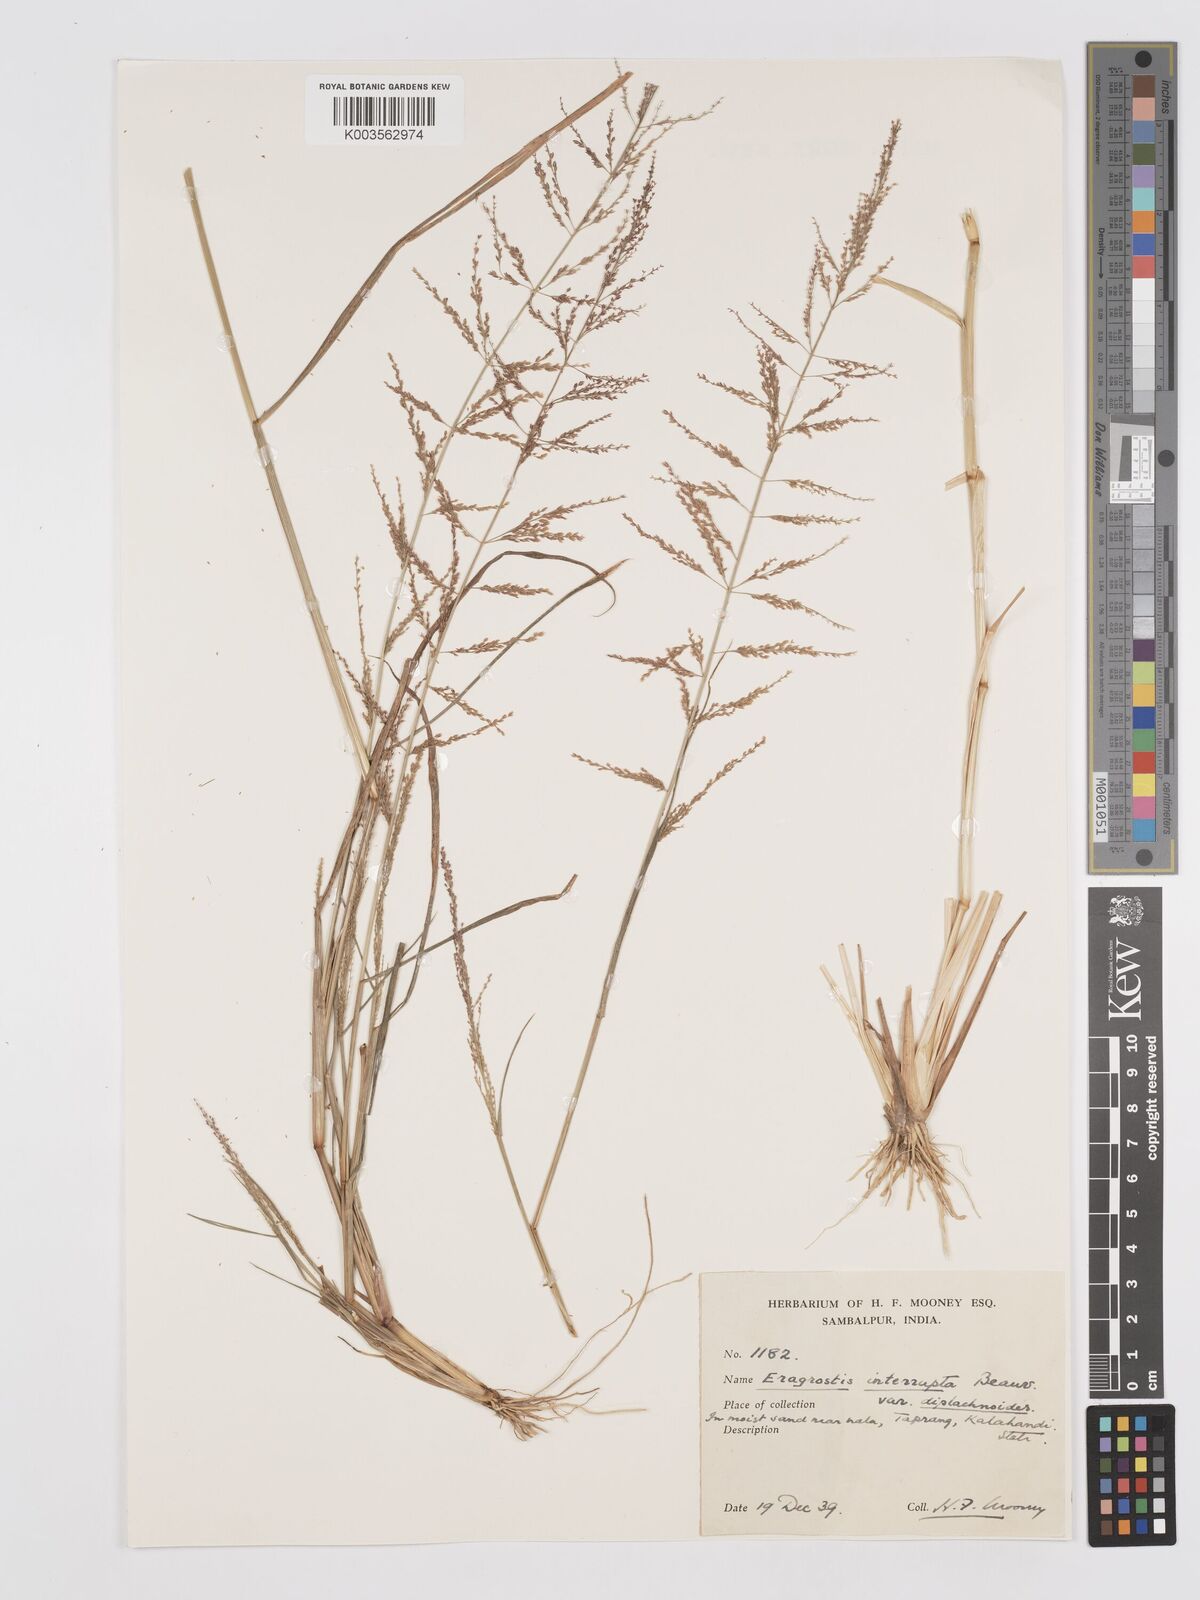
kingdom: Plantae
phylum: Tracheophyta
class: Liliopsida
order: Poales
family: Poaceae
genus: Eragrostis
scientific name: Eragrostis japonica
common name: Pond lovegrass
